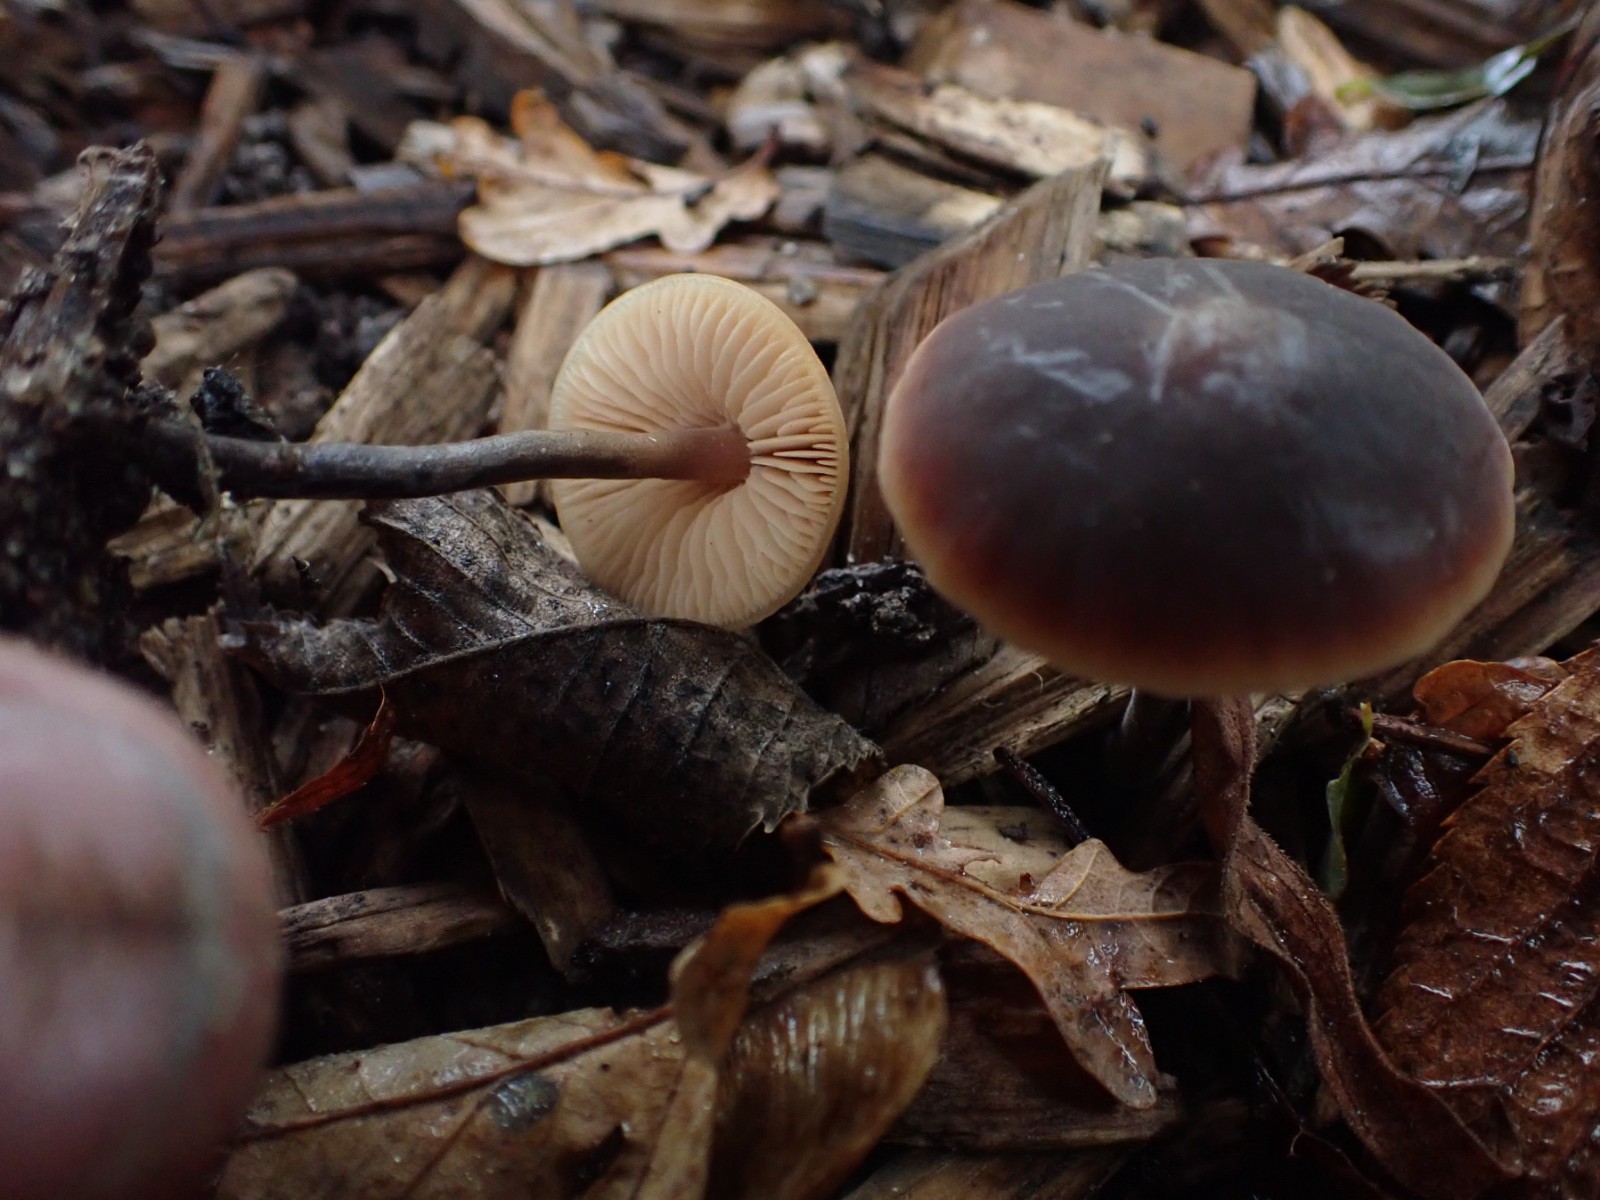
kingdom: Fungi
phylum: Basidiomycota
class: Agaricomycetes
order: Agaricales
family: Macrocystidiaceae
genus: Macrocystidia
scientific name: Macrocystidia cucumis
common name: agurkehat
